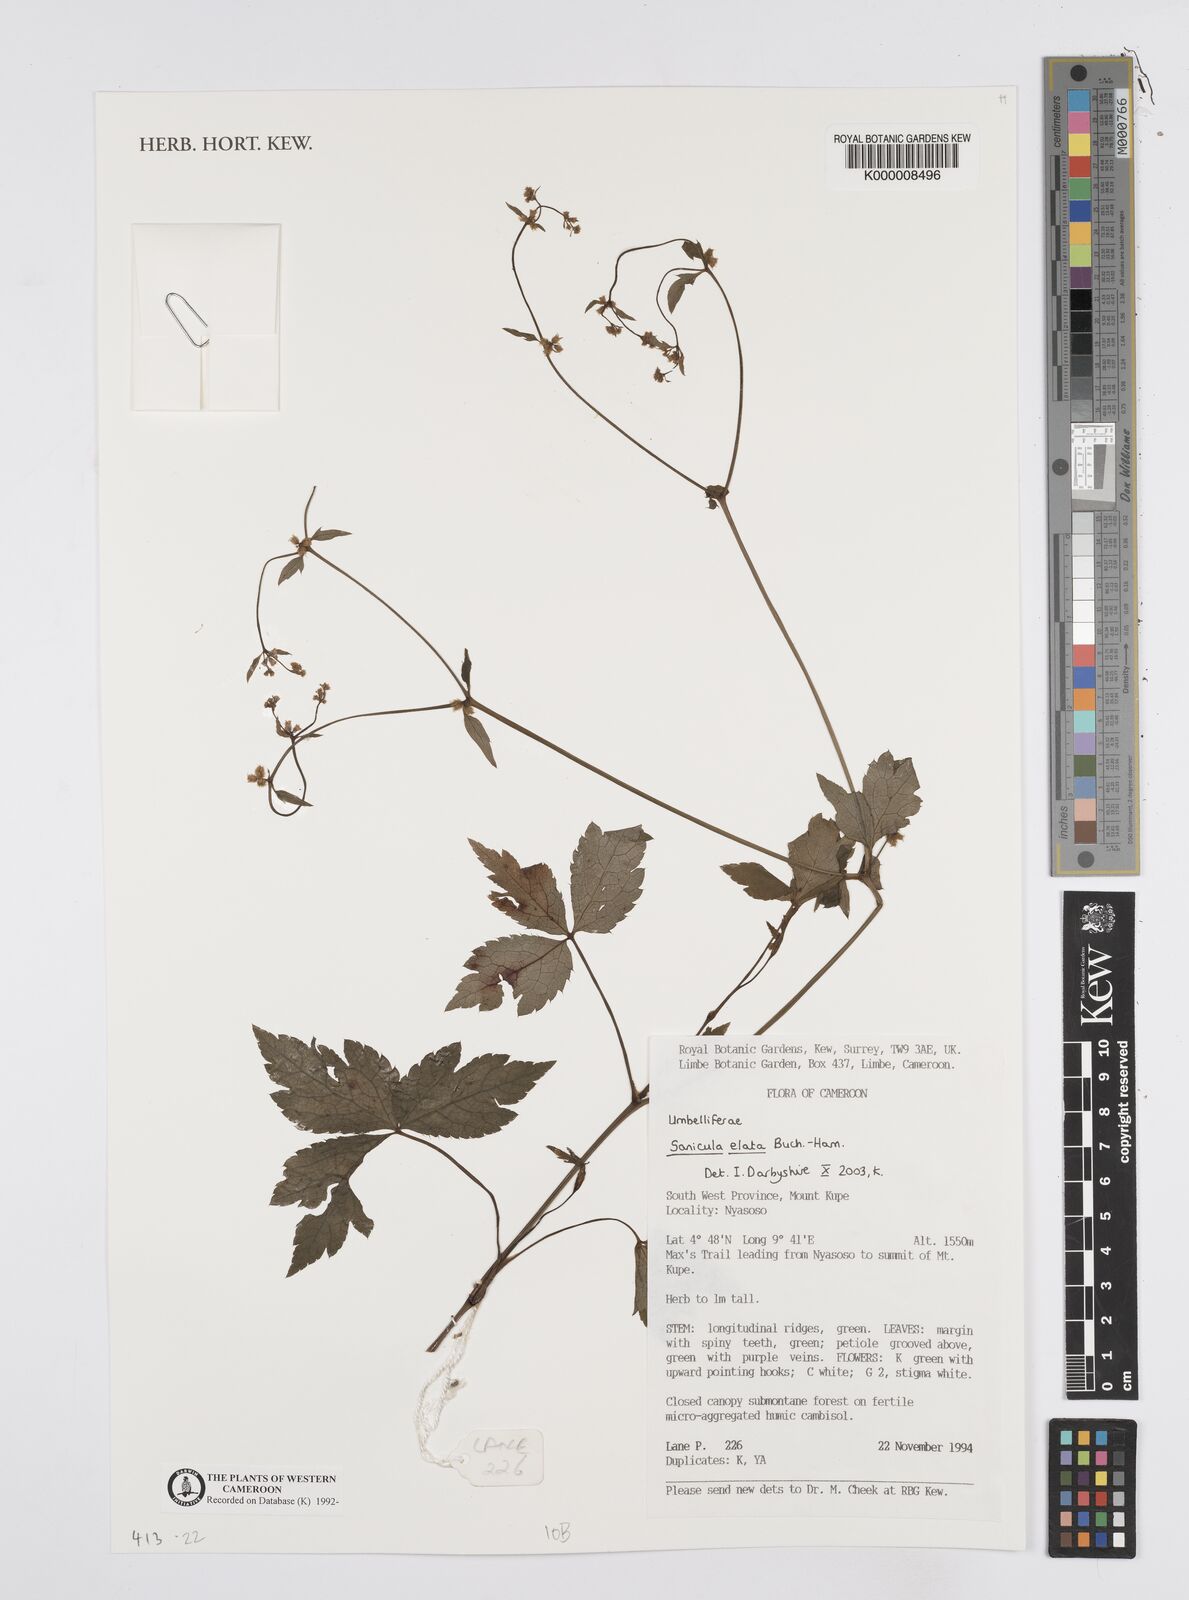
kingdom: Plantae
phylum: Tracheophyta
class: Magnoliopsida
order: Apiales
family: Apiaceae
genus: Sanicula
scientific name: Sanicula
